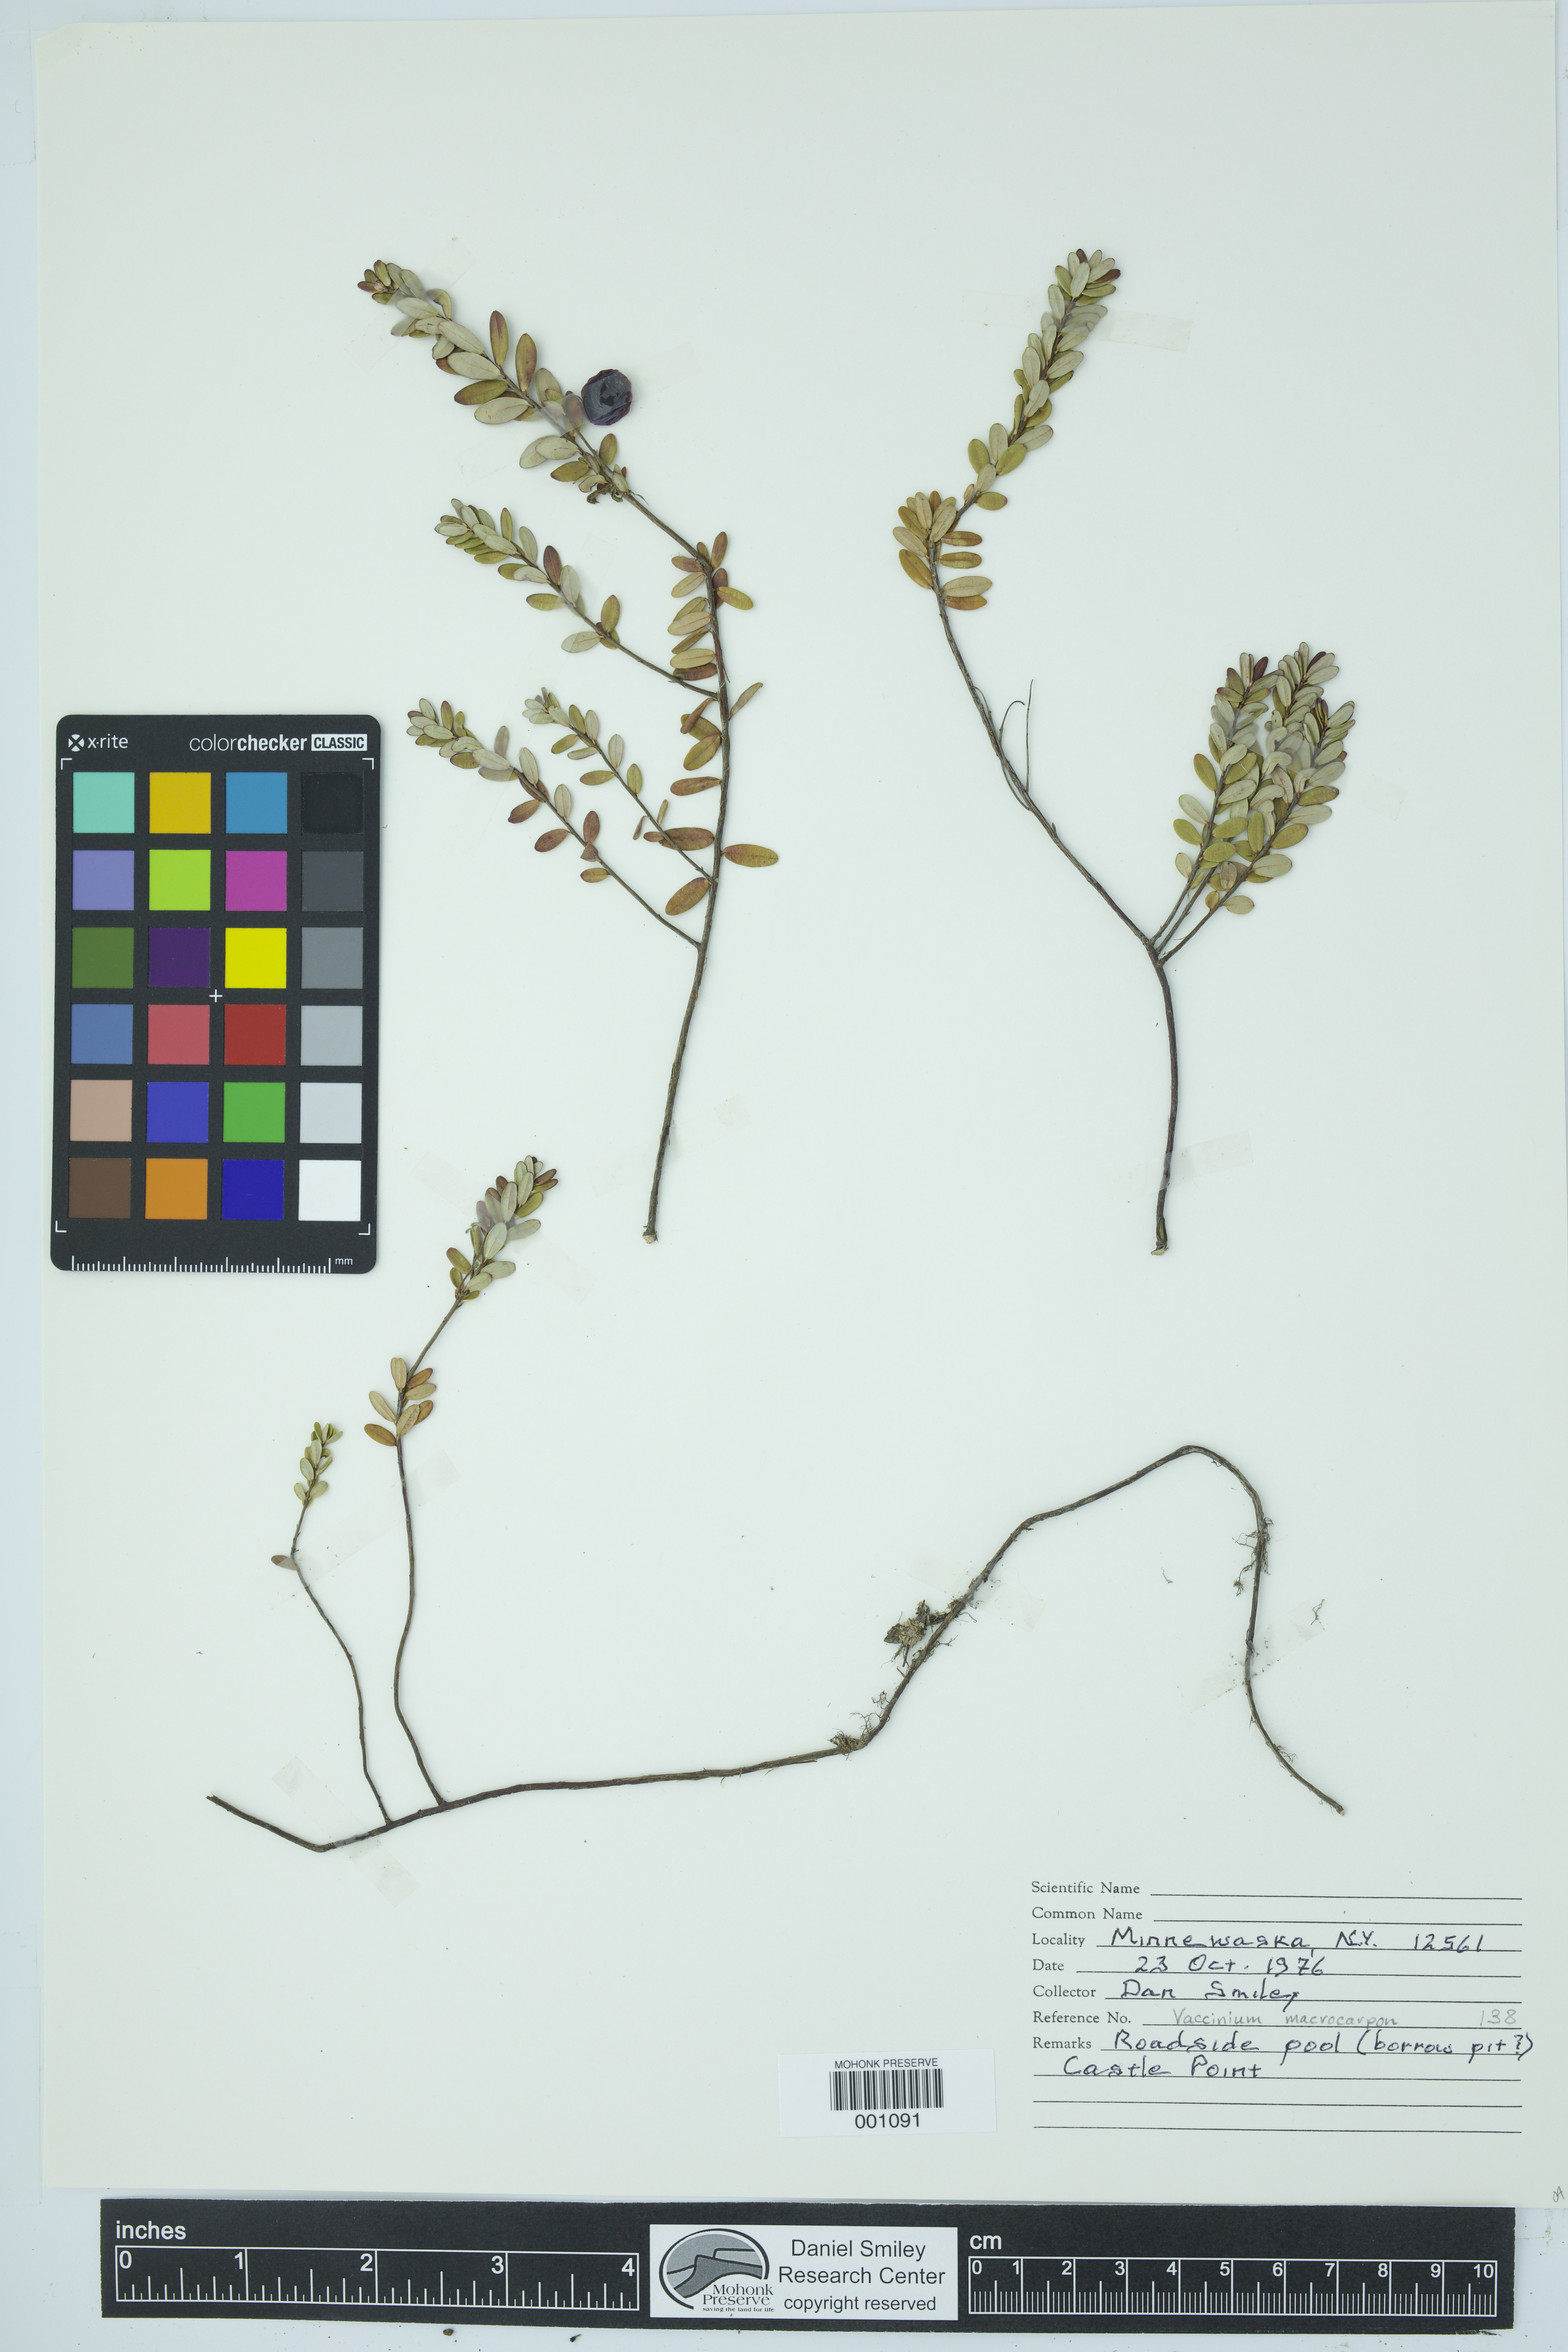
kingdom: Plantae
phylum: Tracheophyta
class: Magnoliopsida
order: Ericales
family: Ericaceae
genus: Vaccinium
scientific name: Vaccinium macrocarpon
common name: American cranberry
